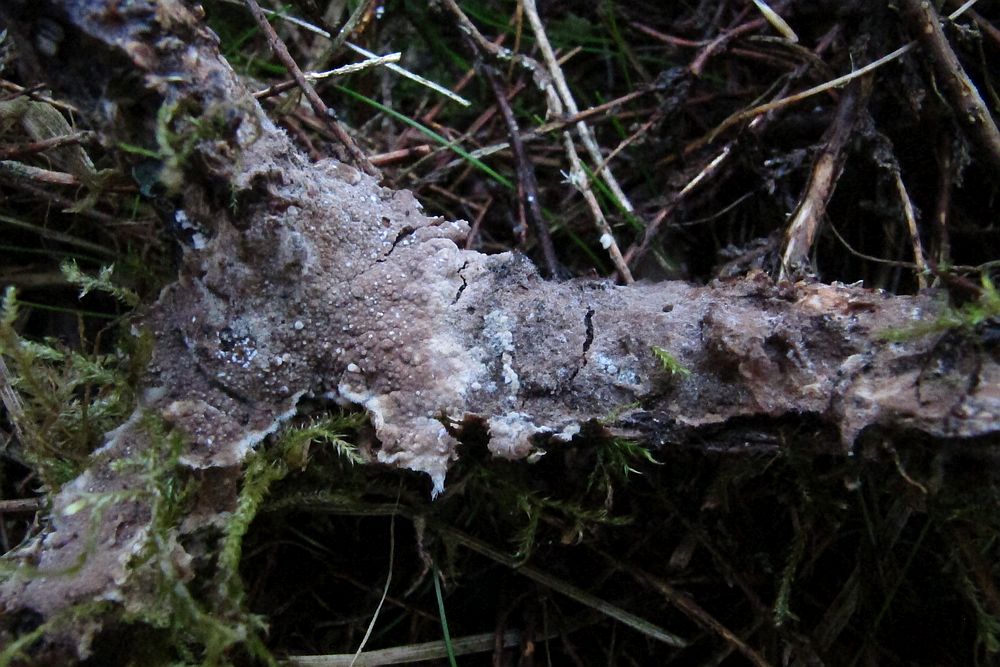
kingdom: Fungi
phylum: Basidiomycota
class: Agaricomycetes
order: Thelephorales
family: Thelephoraceae
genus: Thelephora
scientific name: Thelephora terrestris
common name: fliget frynsesvamp
